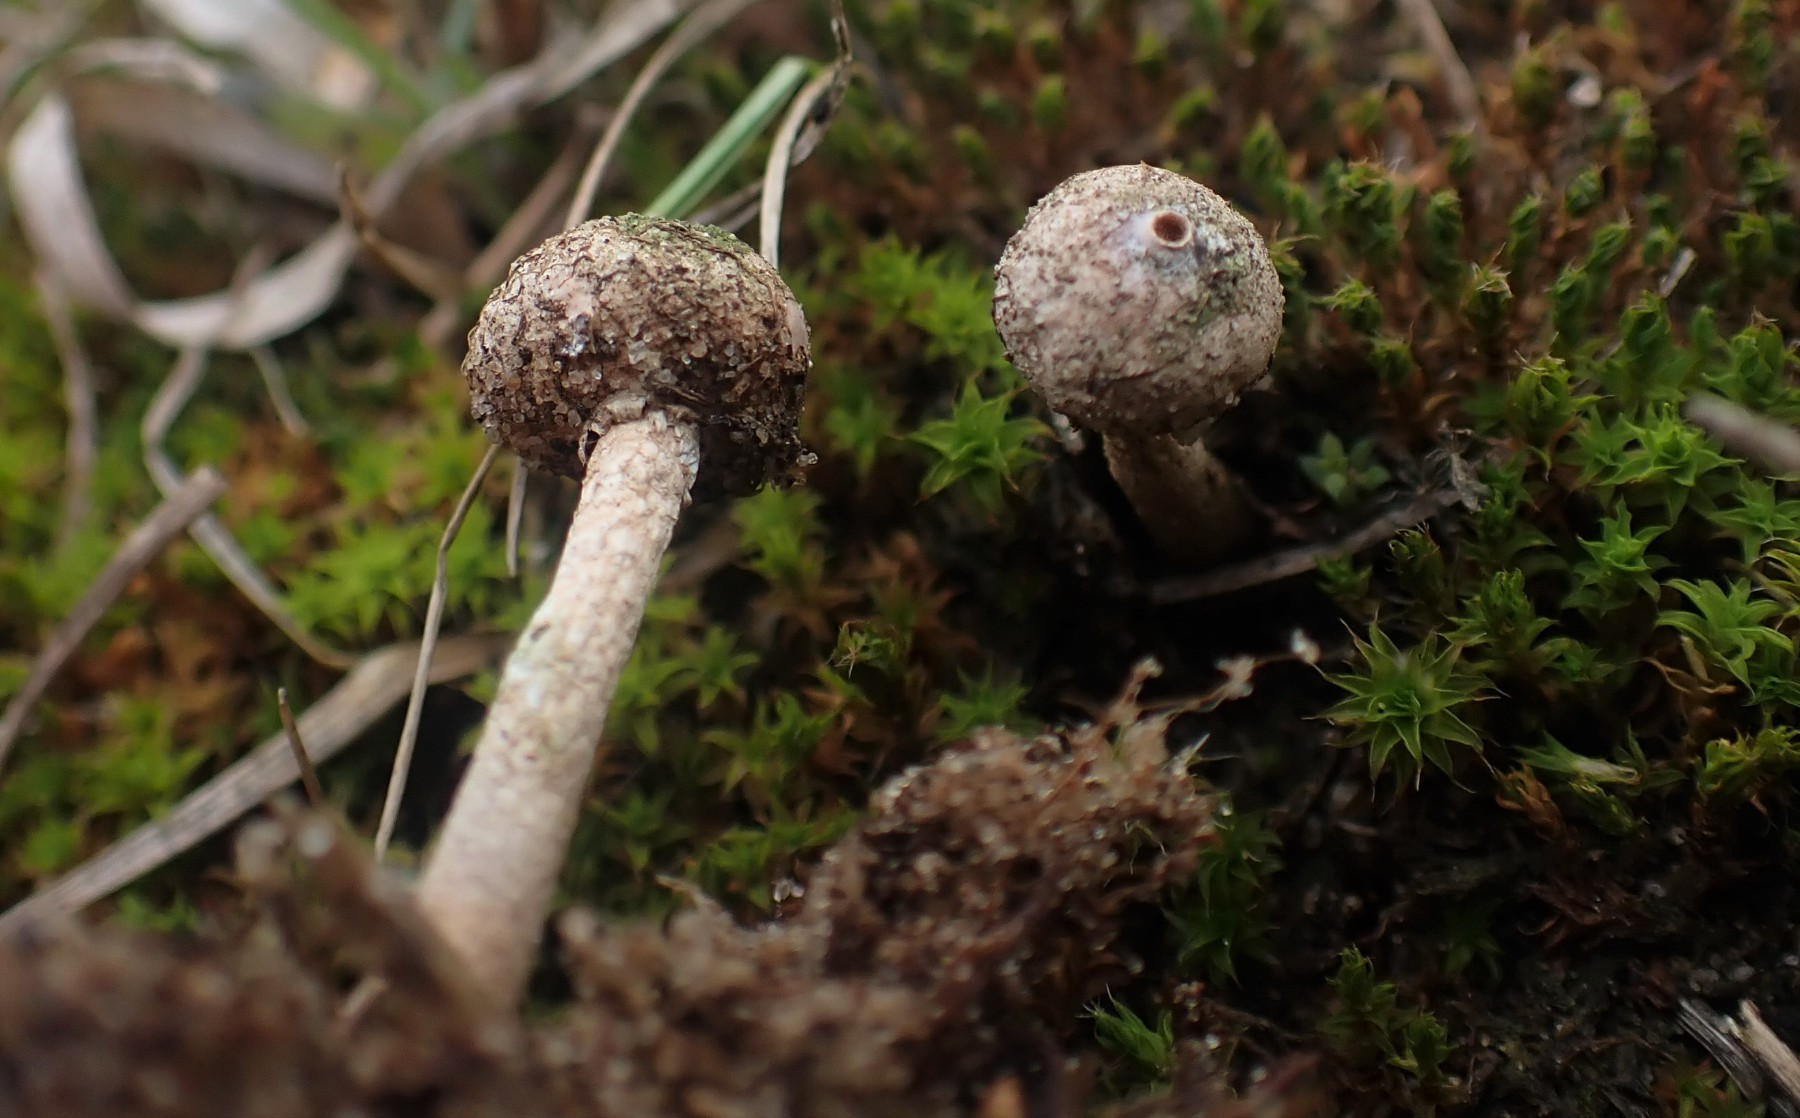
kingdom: Fungi
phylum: Basidiomycota
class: Agaricomycetes
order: Agaricales
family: Agaricaceae
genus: Tulostoma
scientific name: Tulostoma brumale
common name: vinter-stilkbovist
